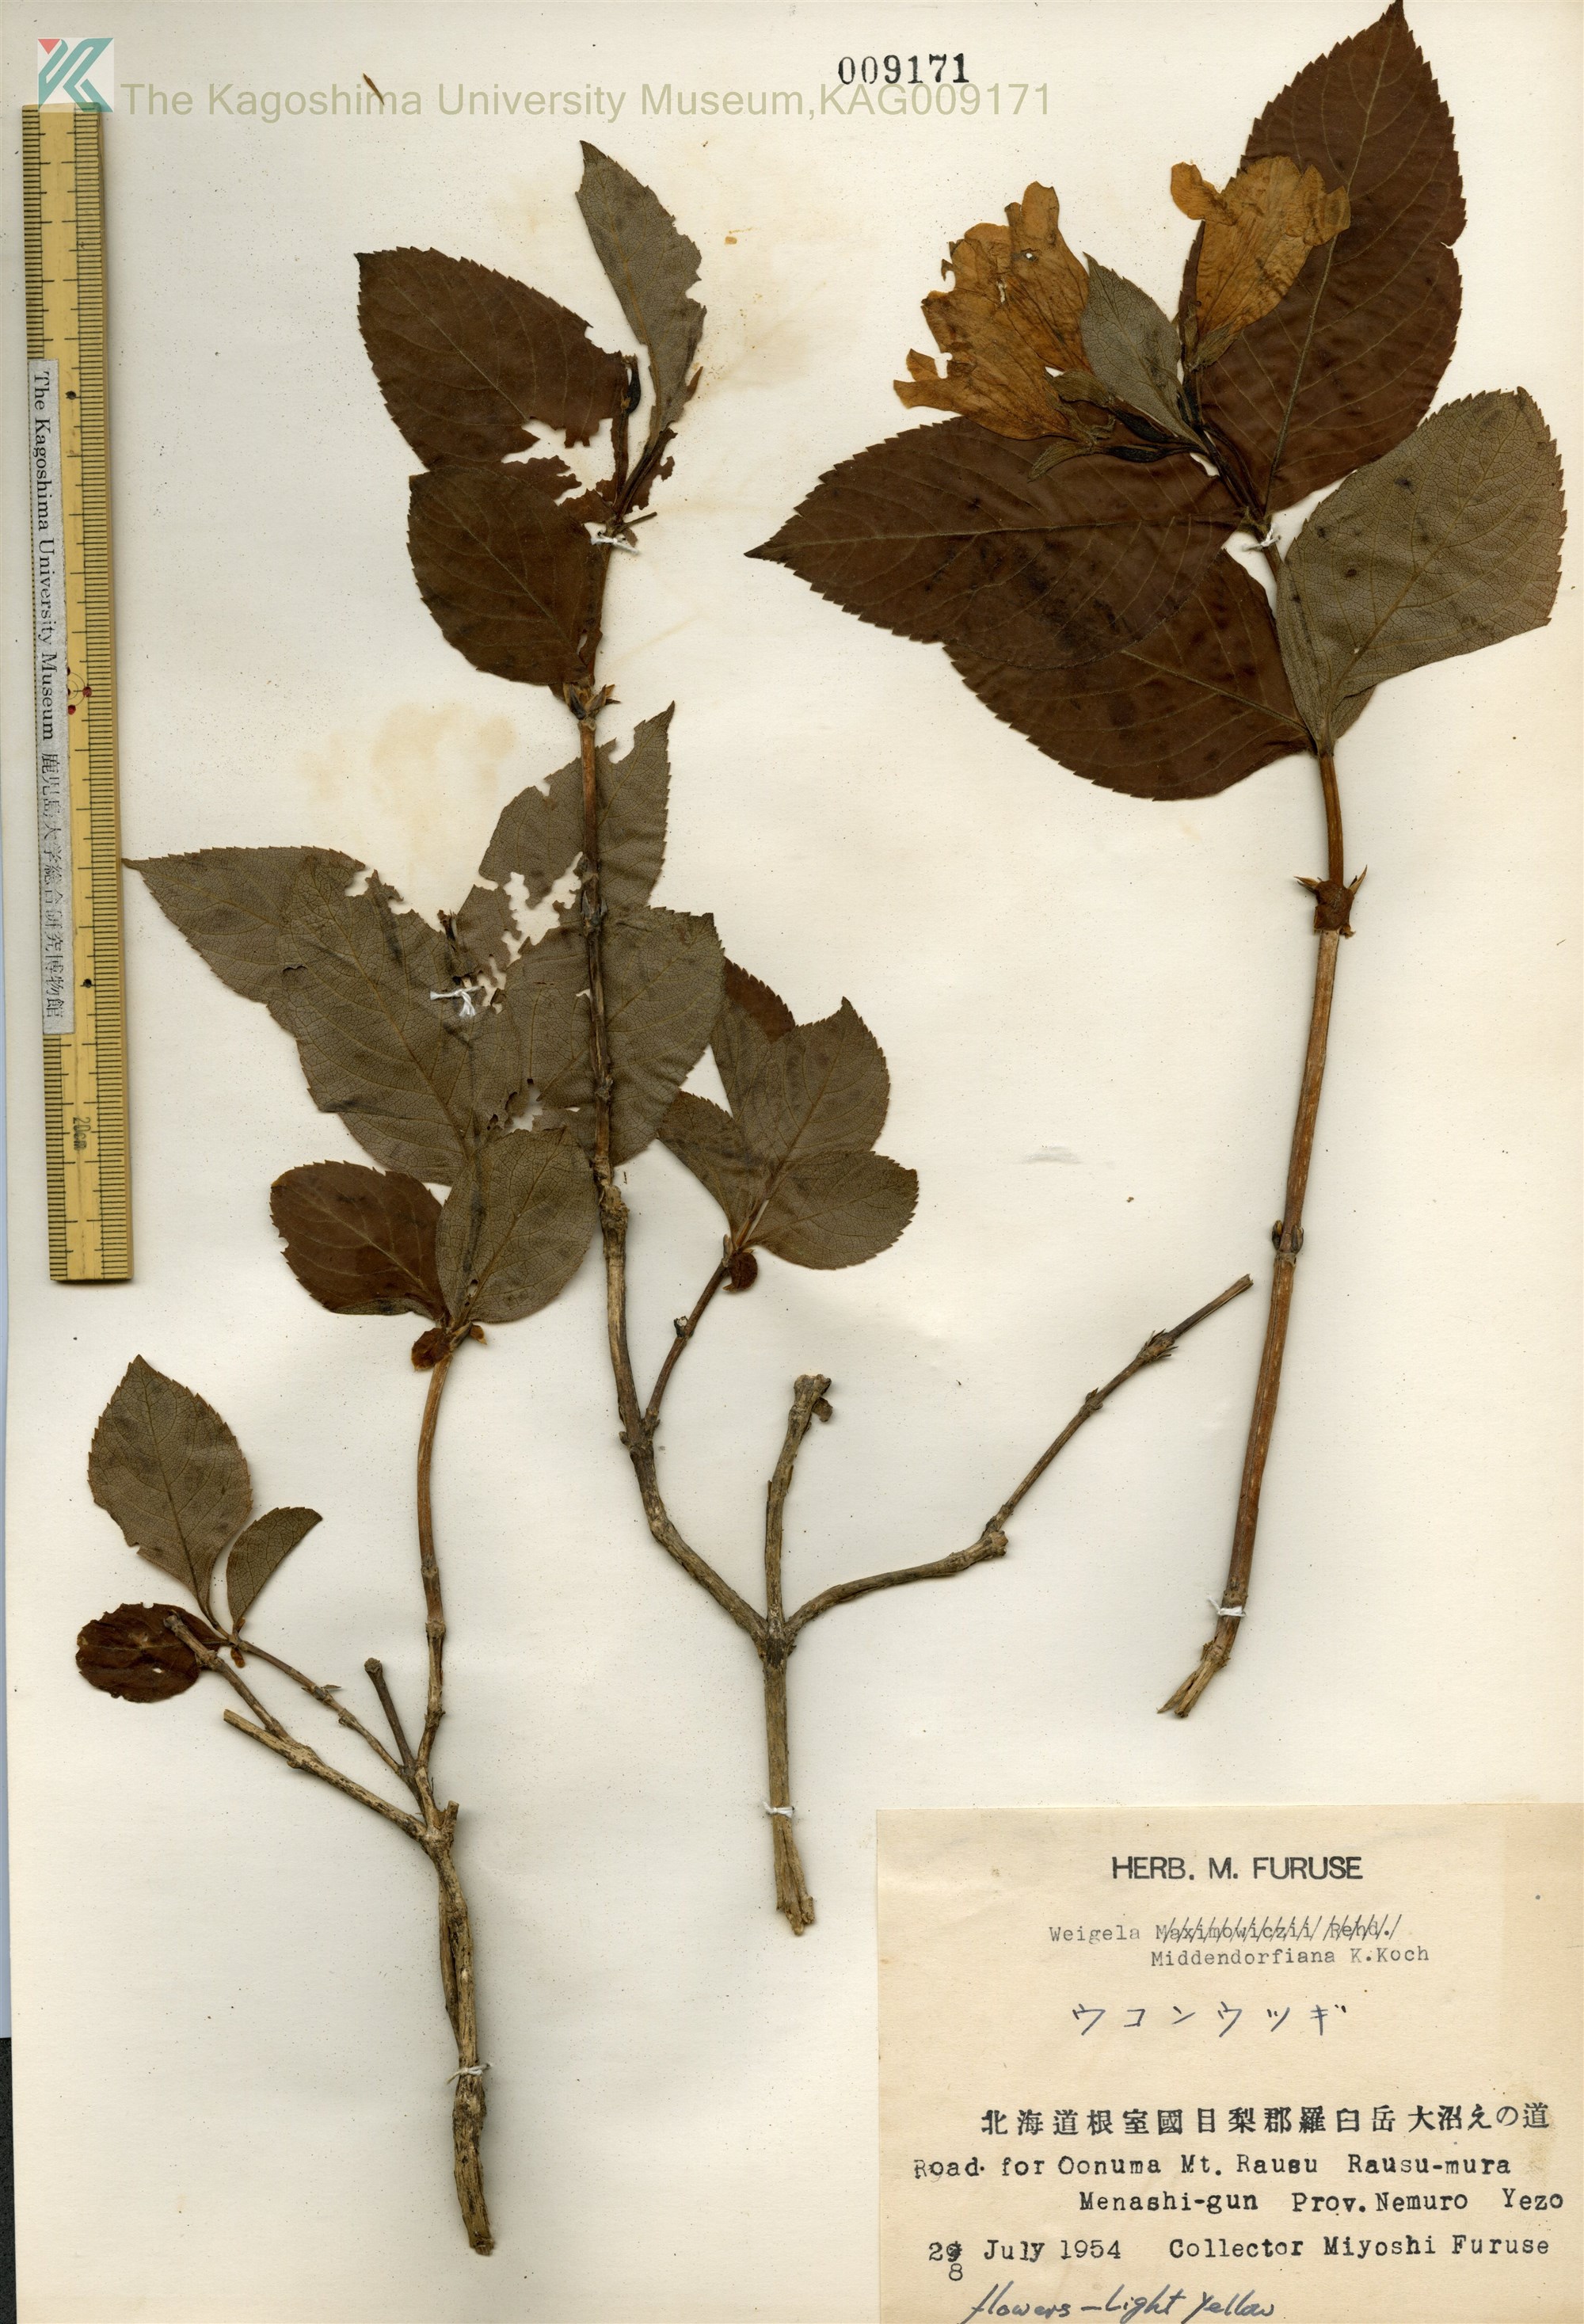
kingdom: Plantae
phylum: Tracheophyta
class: Magnoliopsida
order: Dipsacales
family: Caprifoliaceae
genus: Weigela
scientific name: Weigela middendorffiana
